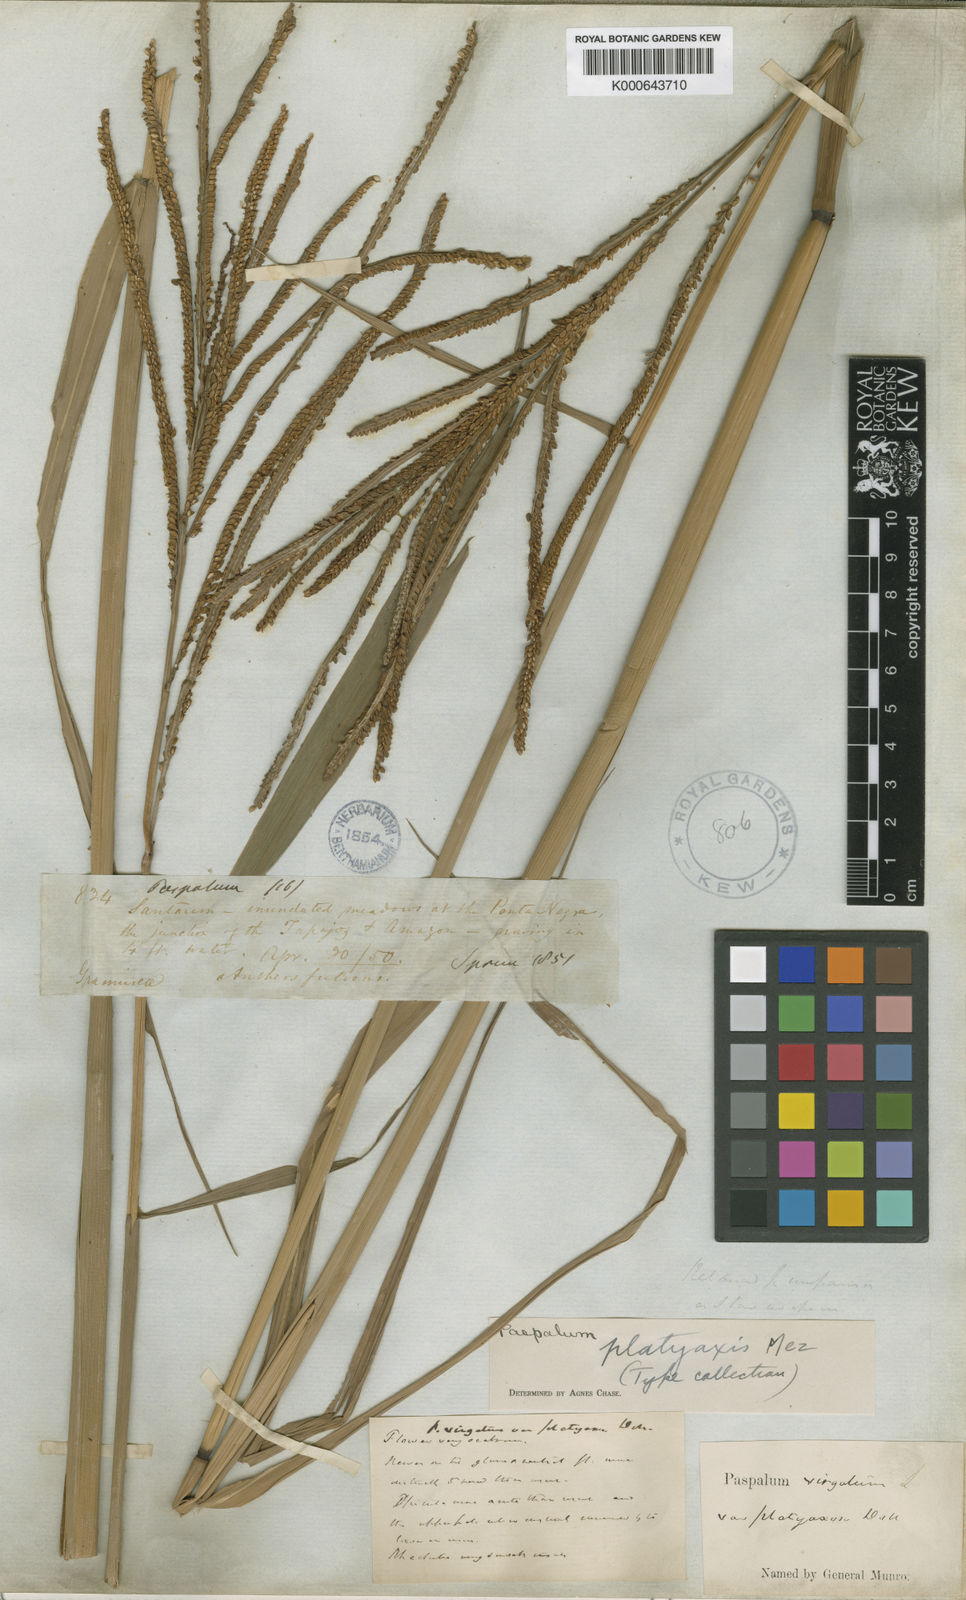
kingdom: Plantae
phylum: Tracheophyta
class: Liliopsida
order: Poales
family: Poaceae
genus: Paspalum
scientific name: Paspalum
